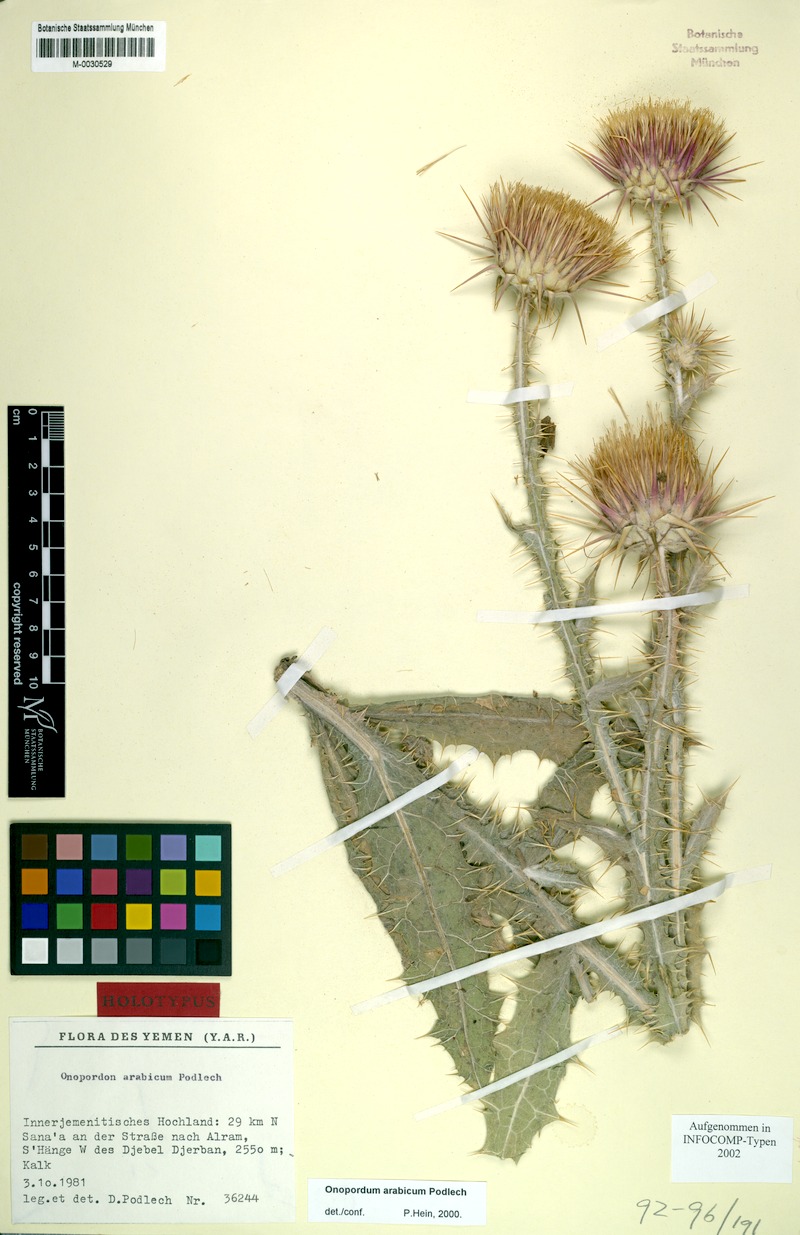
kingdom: Plantae
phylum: Tracheophyta
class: Magnoliopsida
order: Asterales
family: Asteraceae
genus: Onopordum
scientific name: Onopordum podlechii
